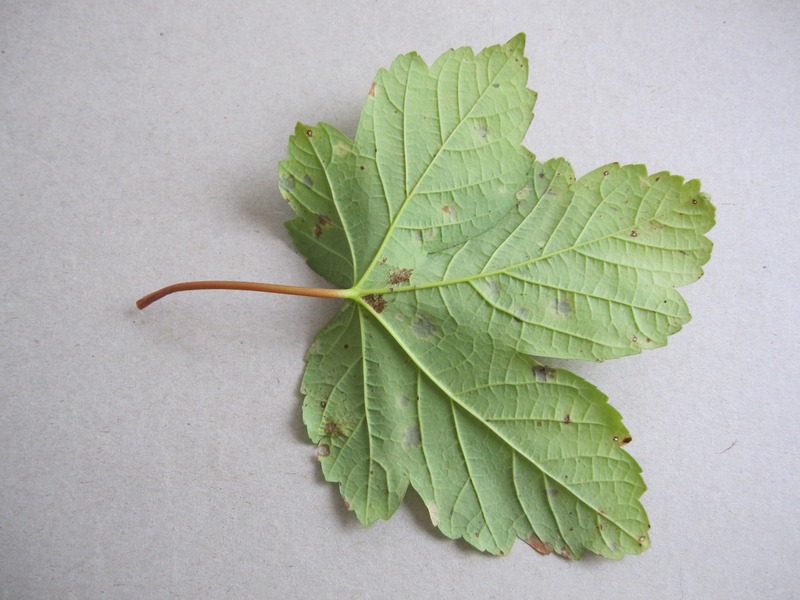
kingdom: Fungi
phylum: Ascomycota
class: Leotiomycetes
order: Rhytismatales
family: Rhytismataceae
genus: Rhytisma
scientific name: Rhytisma acerinum
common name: European tar spot
